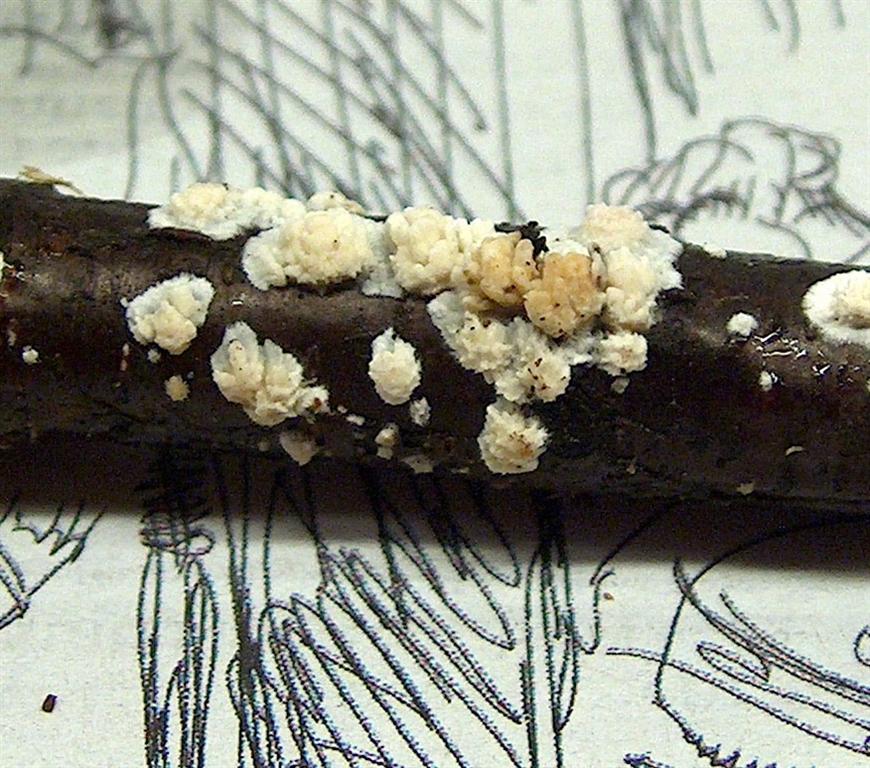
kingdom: Fungi
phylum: Basidiomycota
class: Agaricomycetes
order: Hymenochaetales
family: Schizoporaceae
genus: Xylodon
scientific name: Xylodon radula
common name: grovtandet kalkskind
